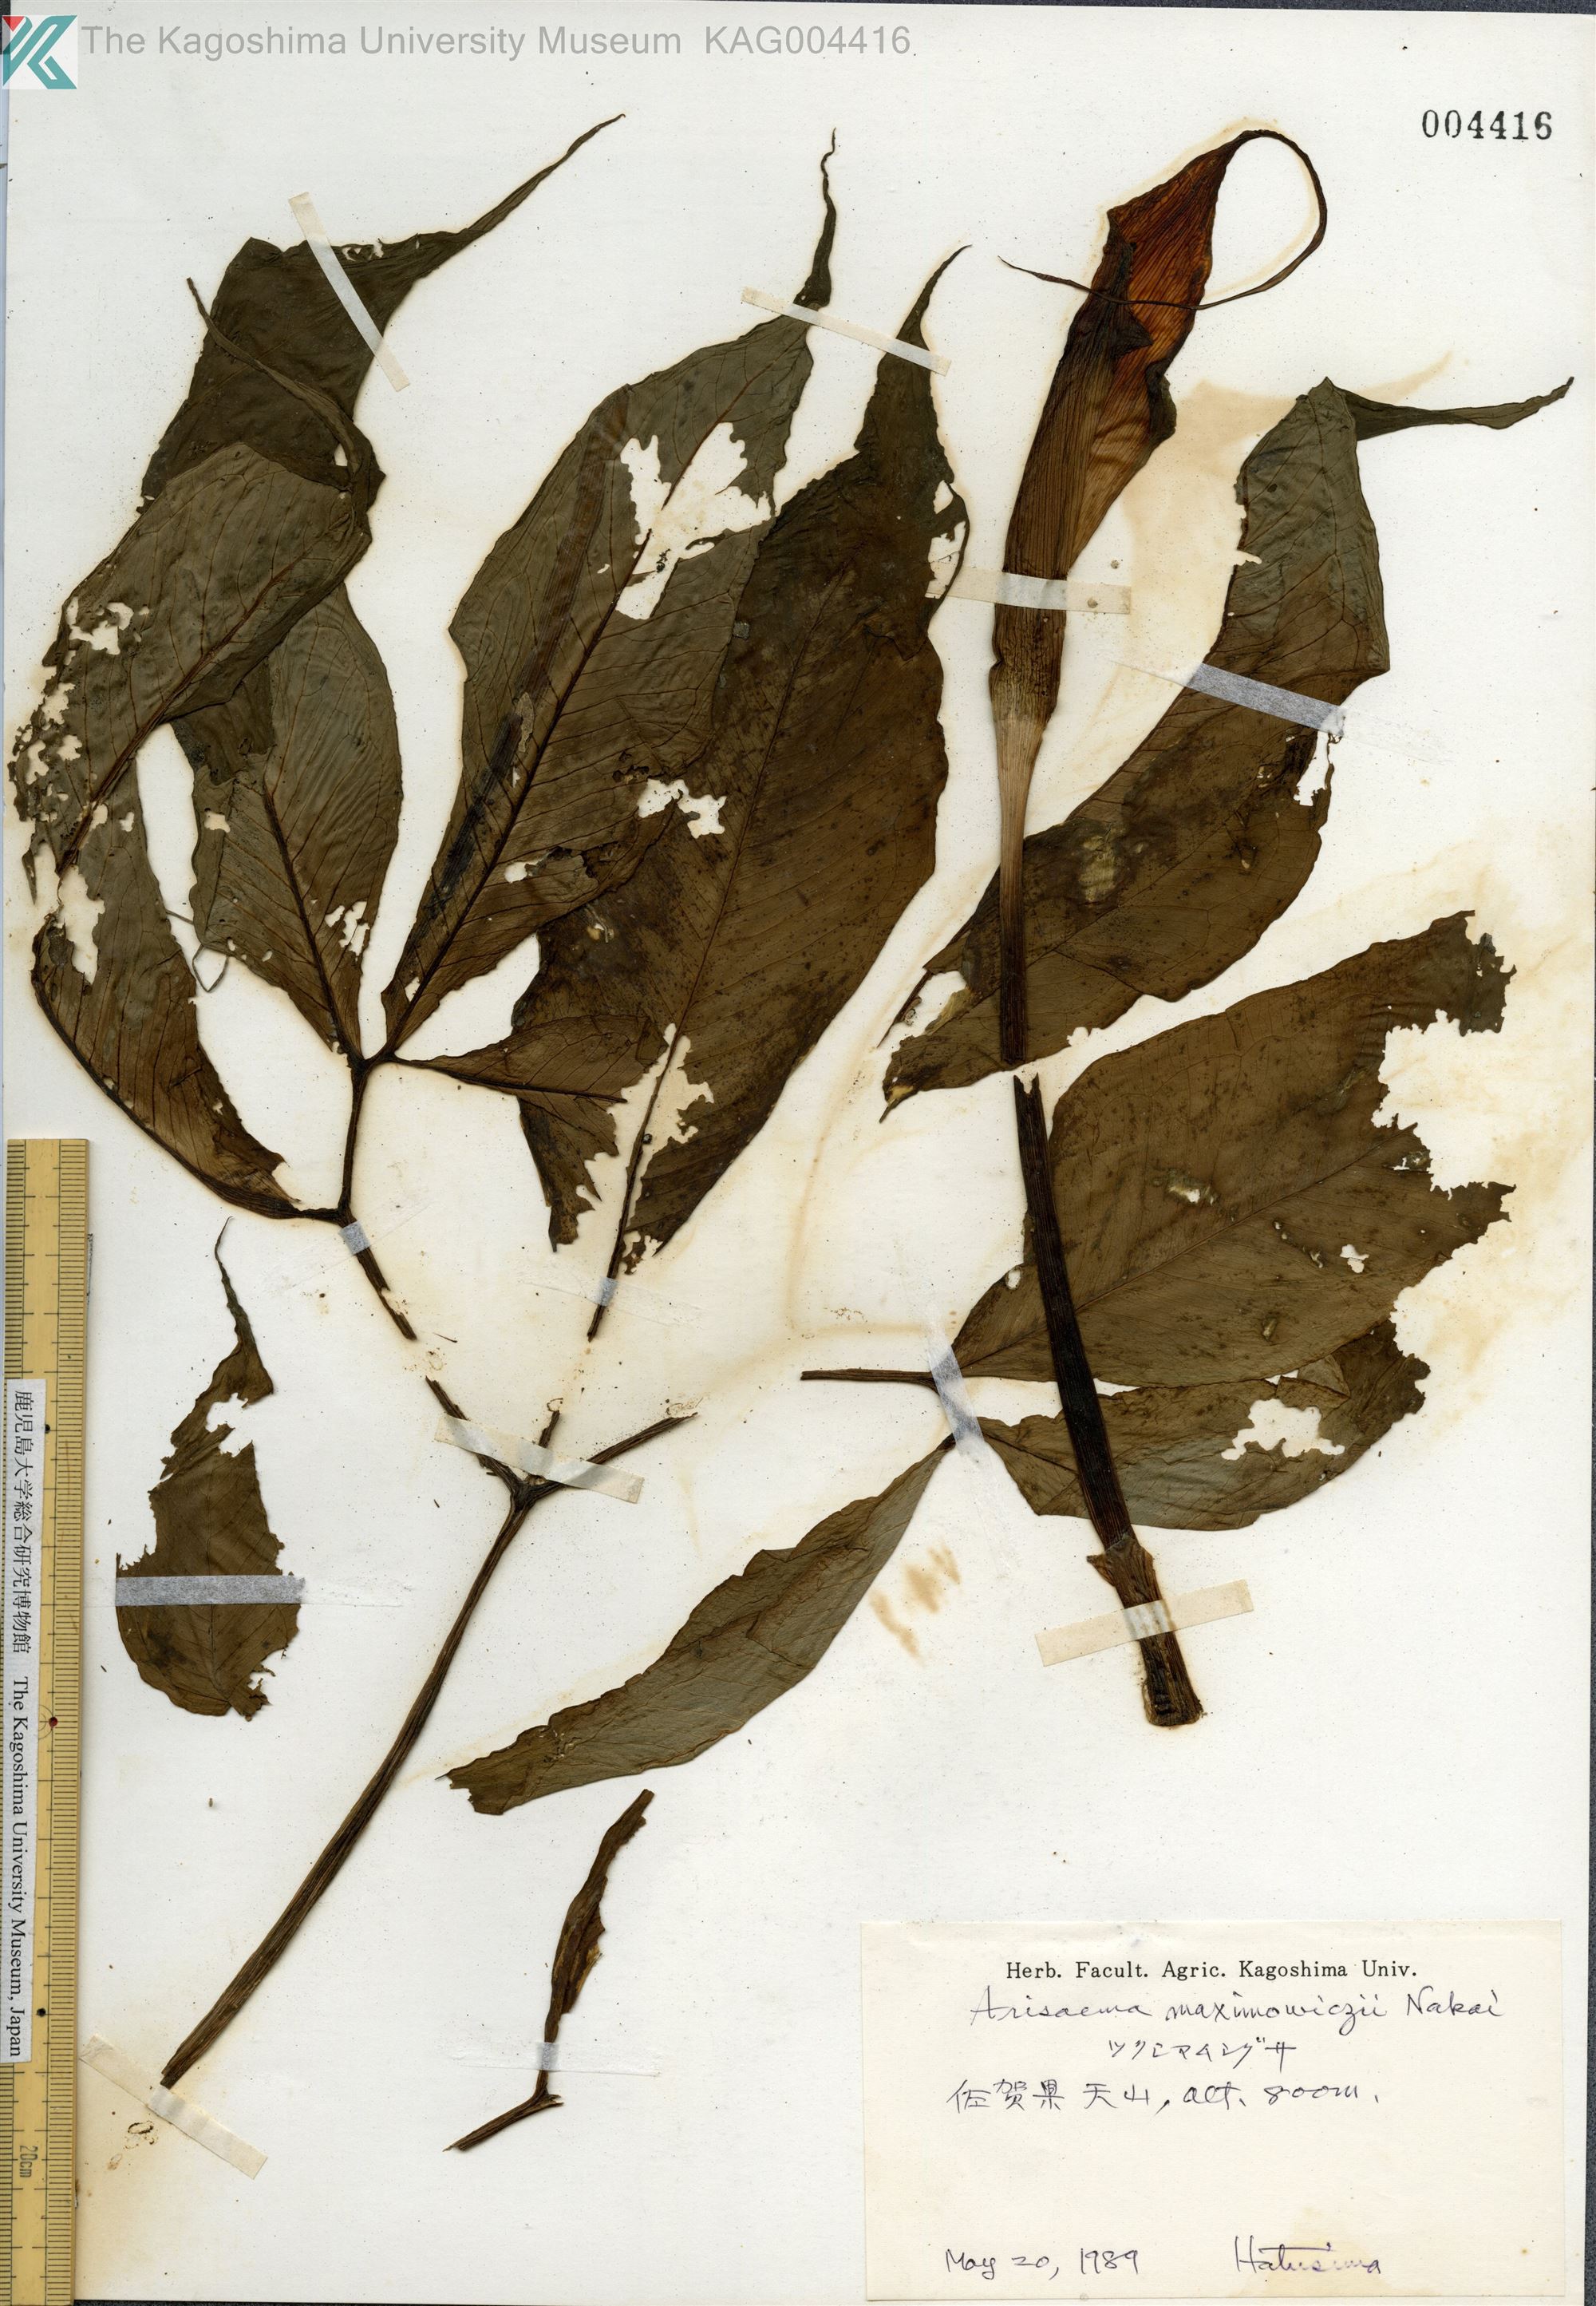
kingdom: Plantae
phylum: Tracheophyta
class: Liliopsida
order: Alismatales
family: Araceae
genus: Arisaema
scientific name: Arisaema maximowiczii
